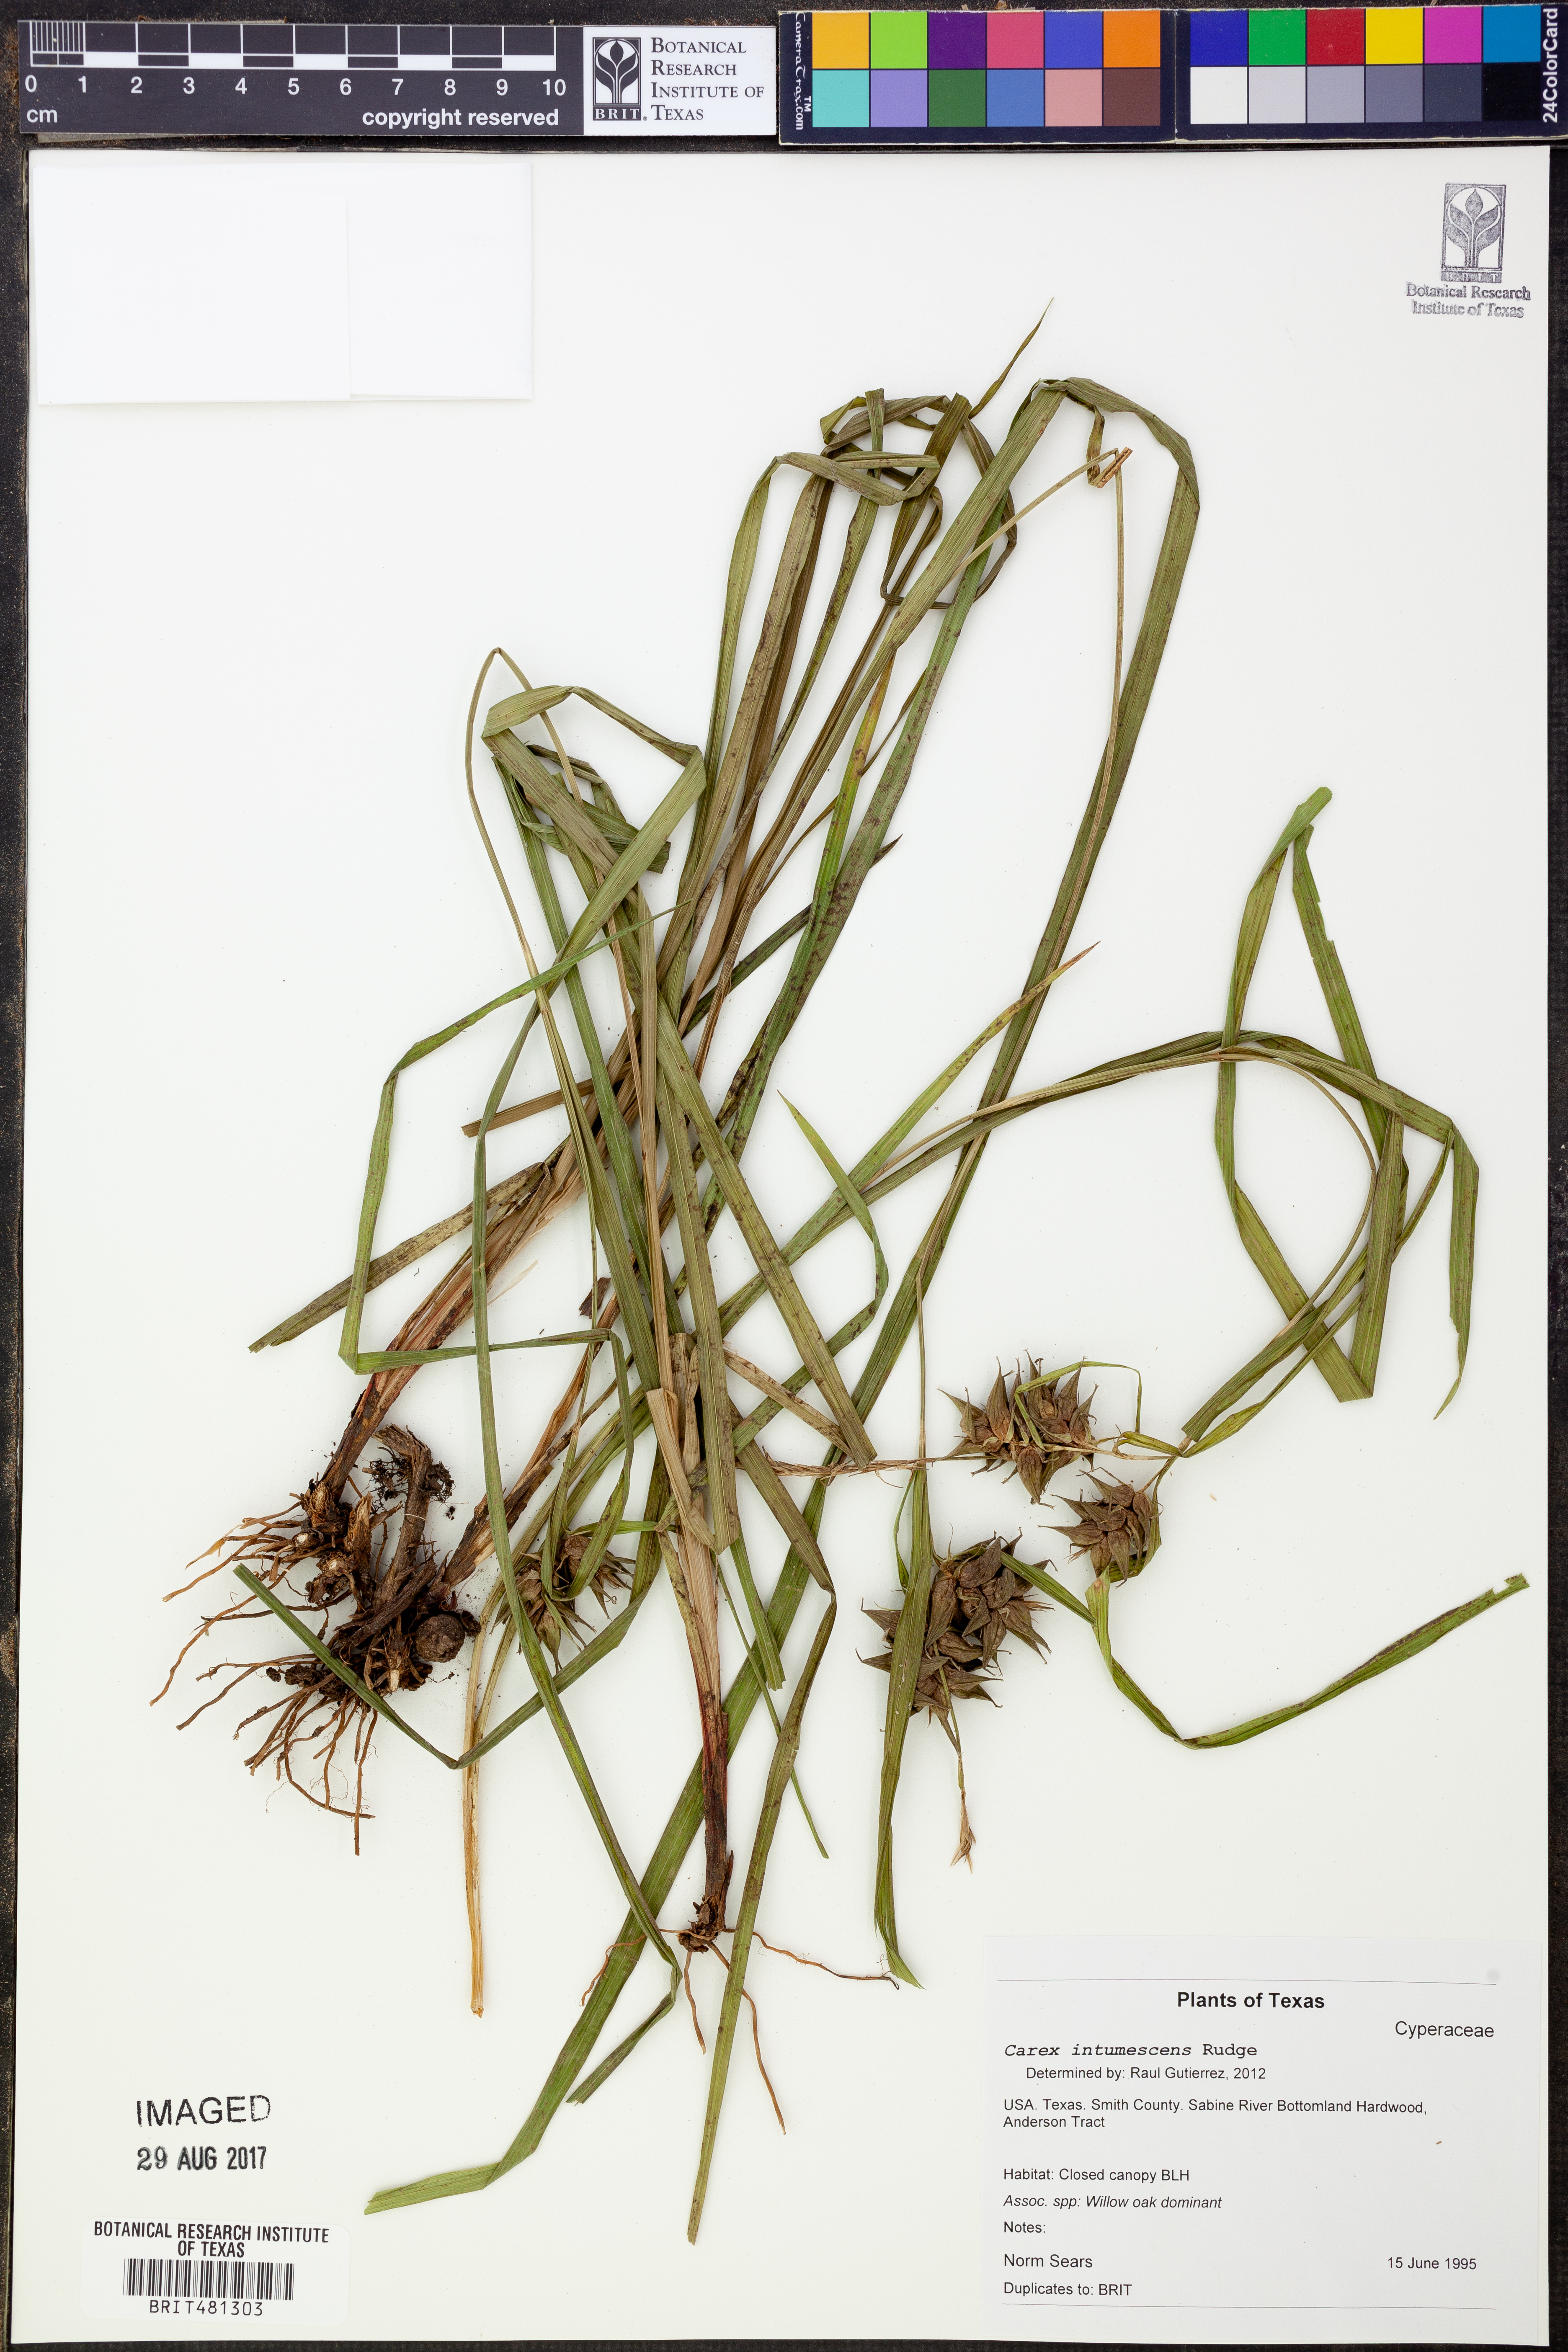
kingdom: Plantae
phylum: Tracheophyta
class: Liliopsida
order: Poales
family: Cyperaceae
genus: Carex
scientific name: Carex intumescens
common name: Greater bladder sedge
